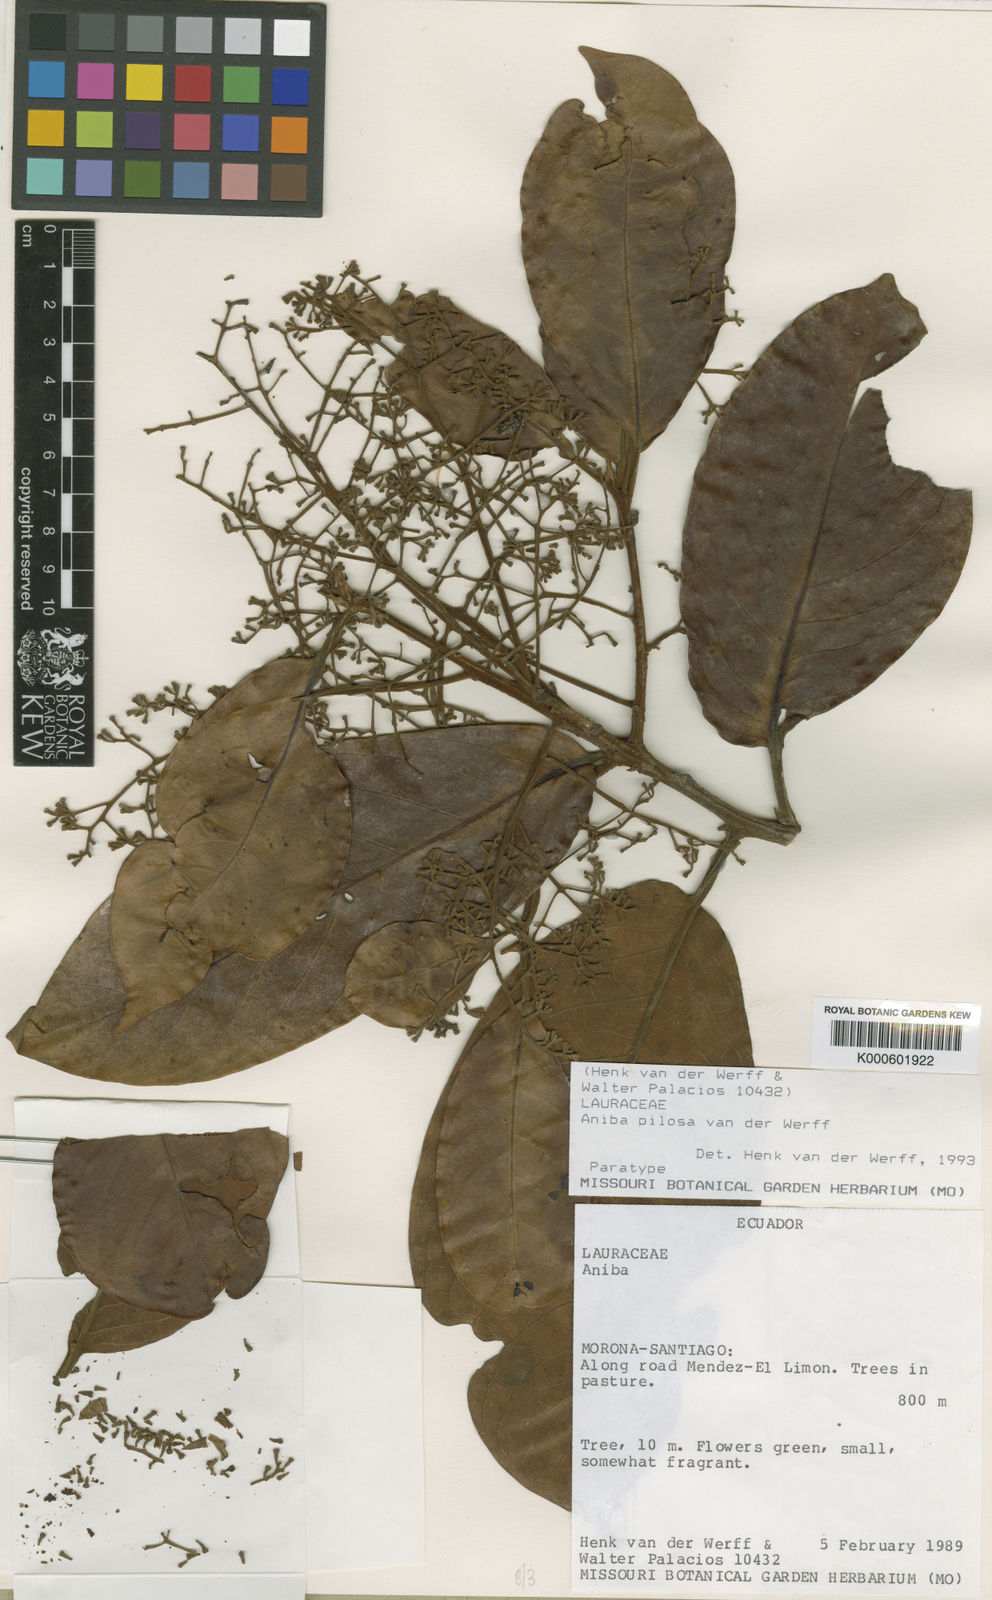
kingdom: Plantae
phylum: Tracheophyta
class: Magnoliopsida
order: Laurales
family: Lauraceae
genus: Aniba
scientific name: Aniba pilosa
